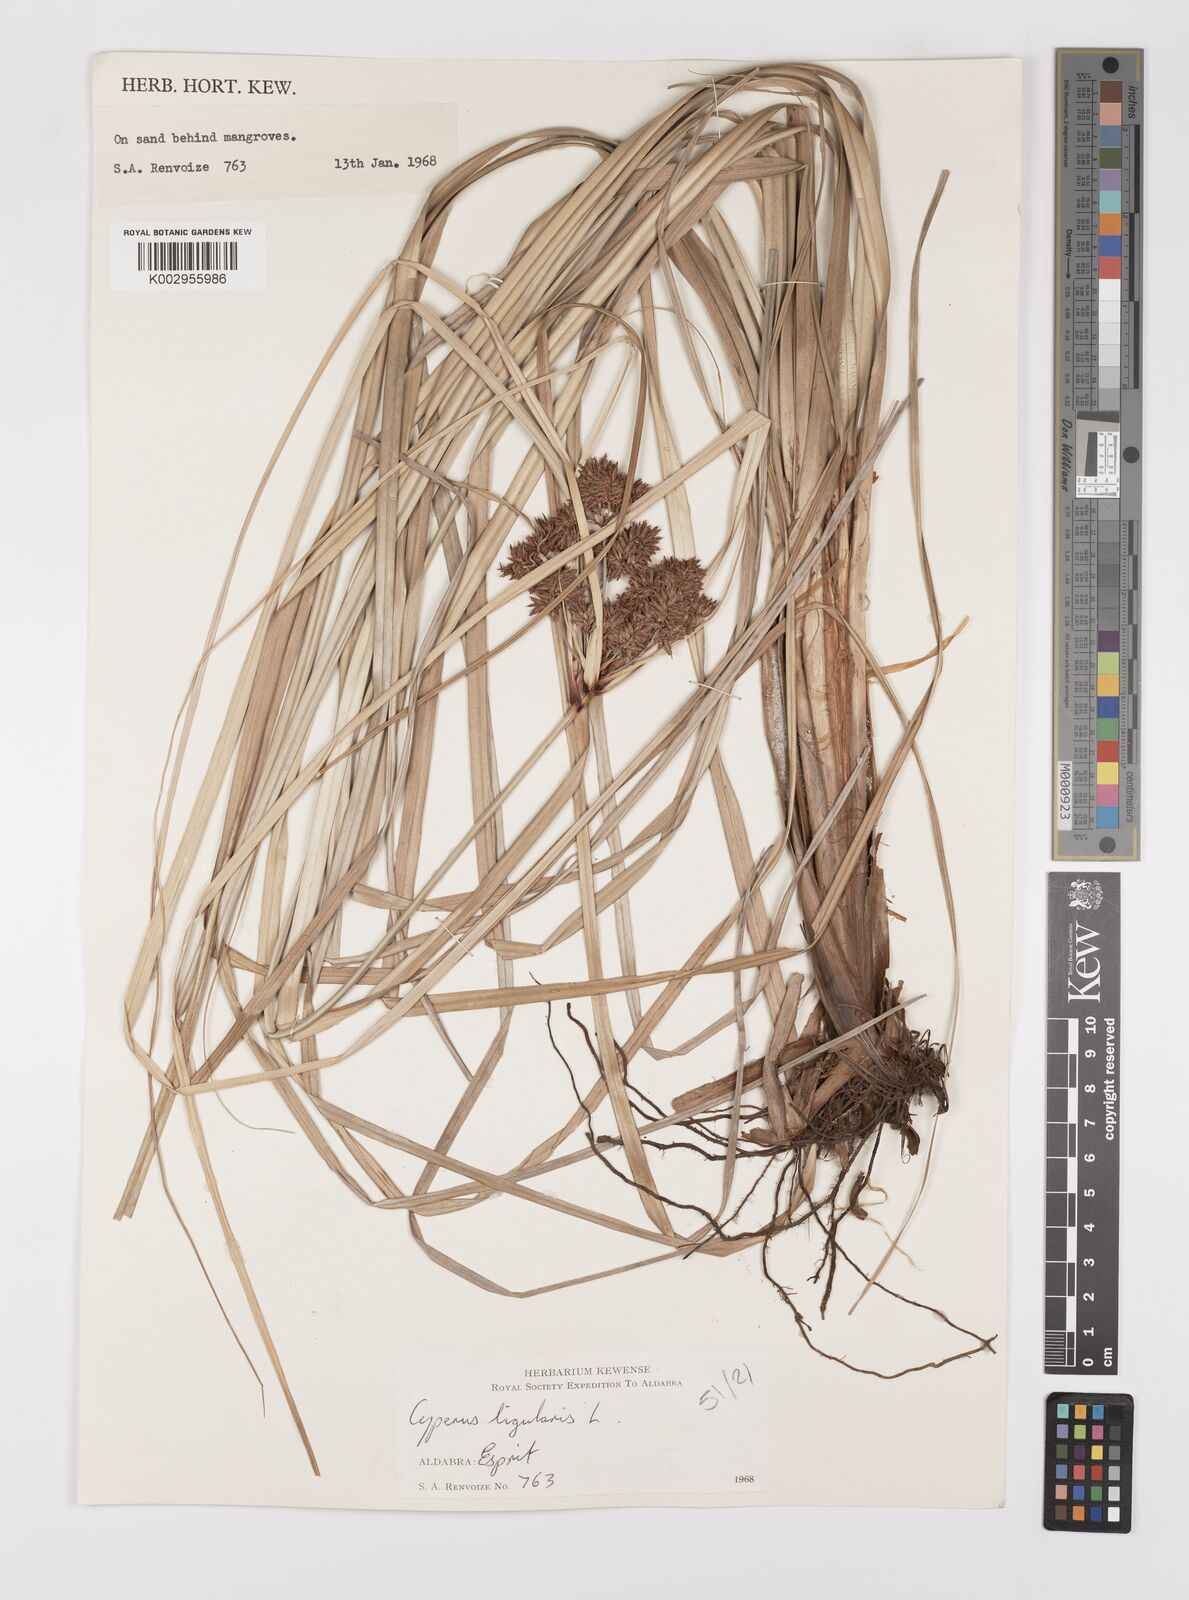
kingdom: Plantae
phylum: Tracheophyta
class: Liliopsida
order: Poales
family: Cyperaceae
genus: Cyperus
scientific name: Cyperus ligularis
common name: Swamp flat sedge
